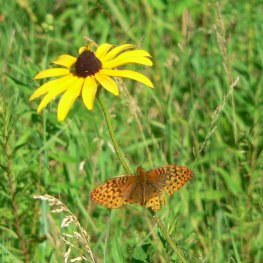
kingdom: Animalia
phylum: Arthropoda
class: Insecta
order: Lepidoptera
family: Nymphalidae
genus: Speyeria
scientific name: Speyeria cybele
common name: Great Spangled Fritillary
